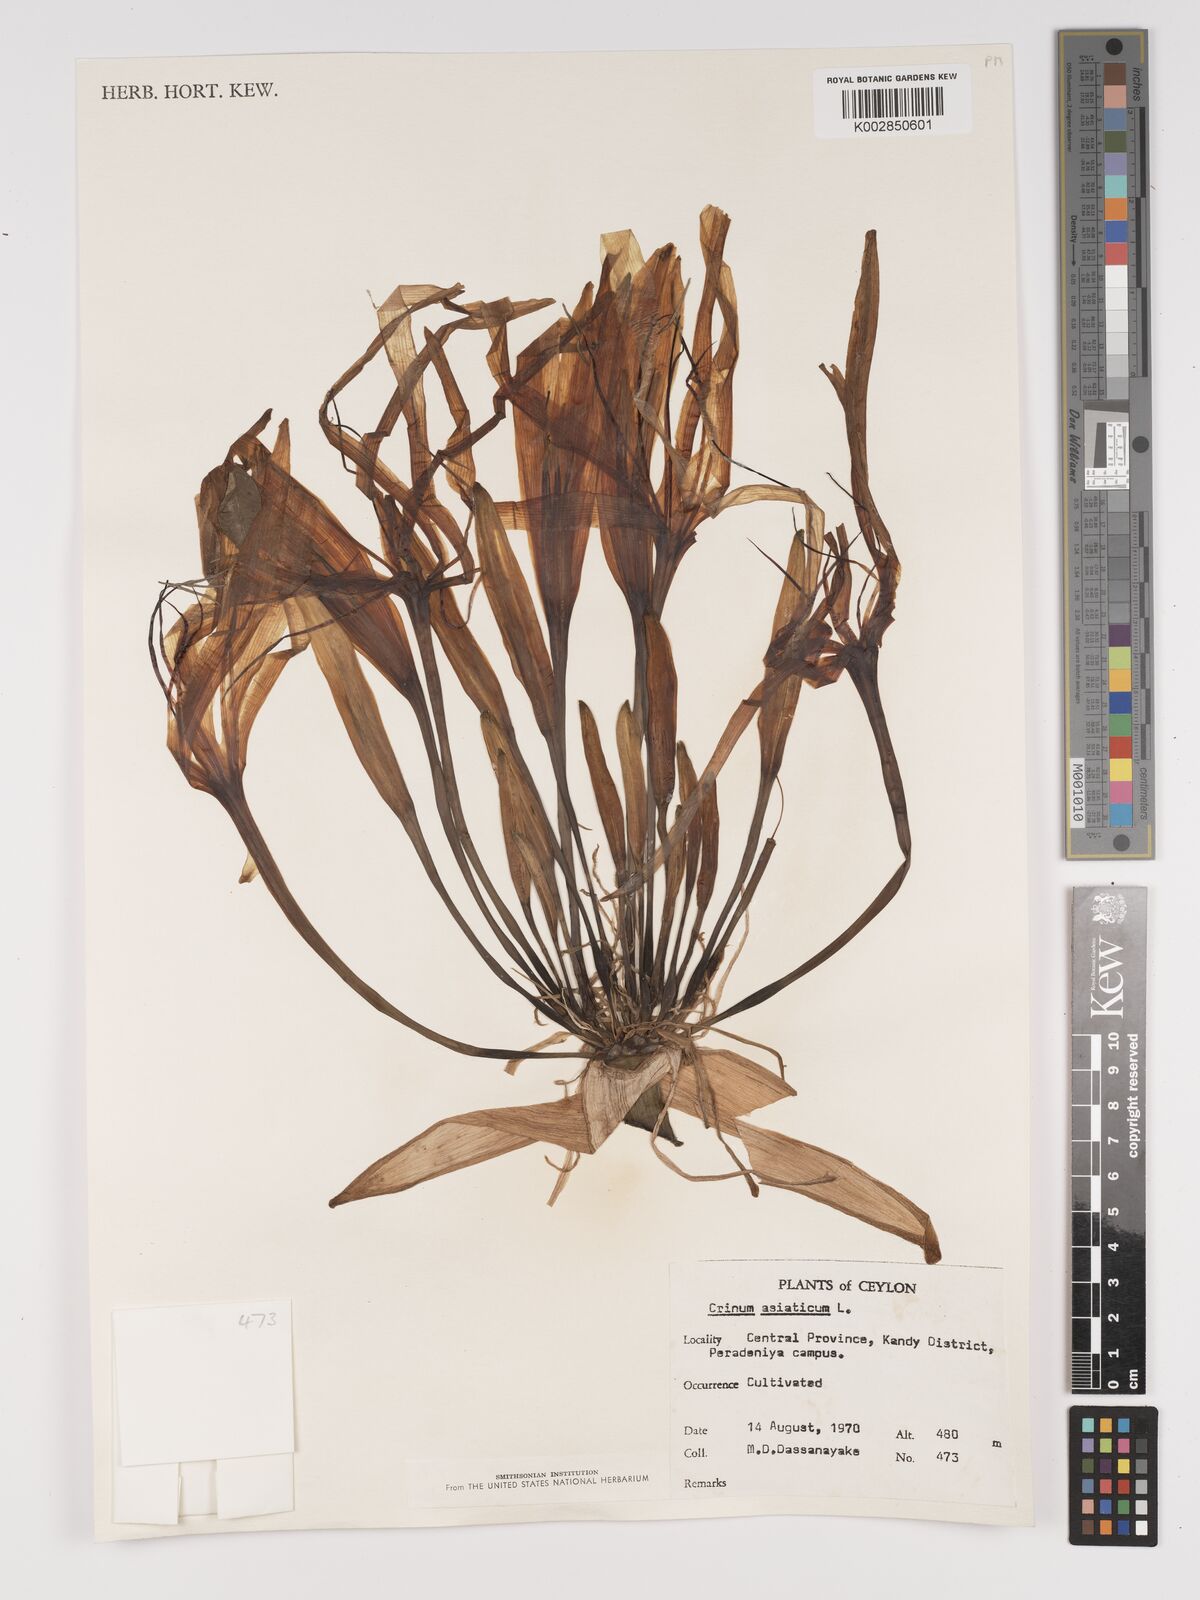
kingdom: Plantae
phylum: Tracheophyta
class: Liliopsida
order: Asparagales
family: Amaryllidaceae
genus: Crinum
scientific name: Crinum asiaticum
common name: Poisonbulb
